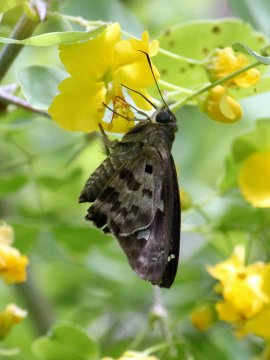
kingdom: Animalia
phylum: Arthropoda
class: Insecta
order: Lepidoptera
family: Hesperiidae
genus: Polygonus
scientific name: Polygonus leo
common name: Hammock Skipper
